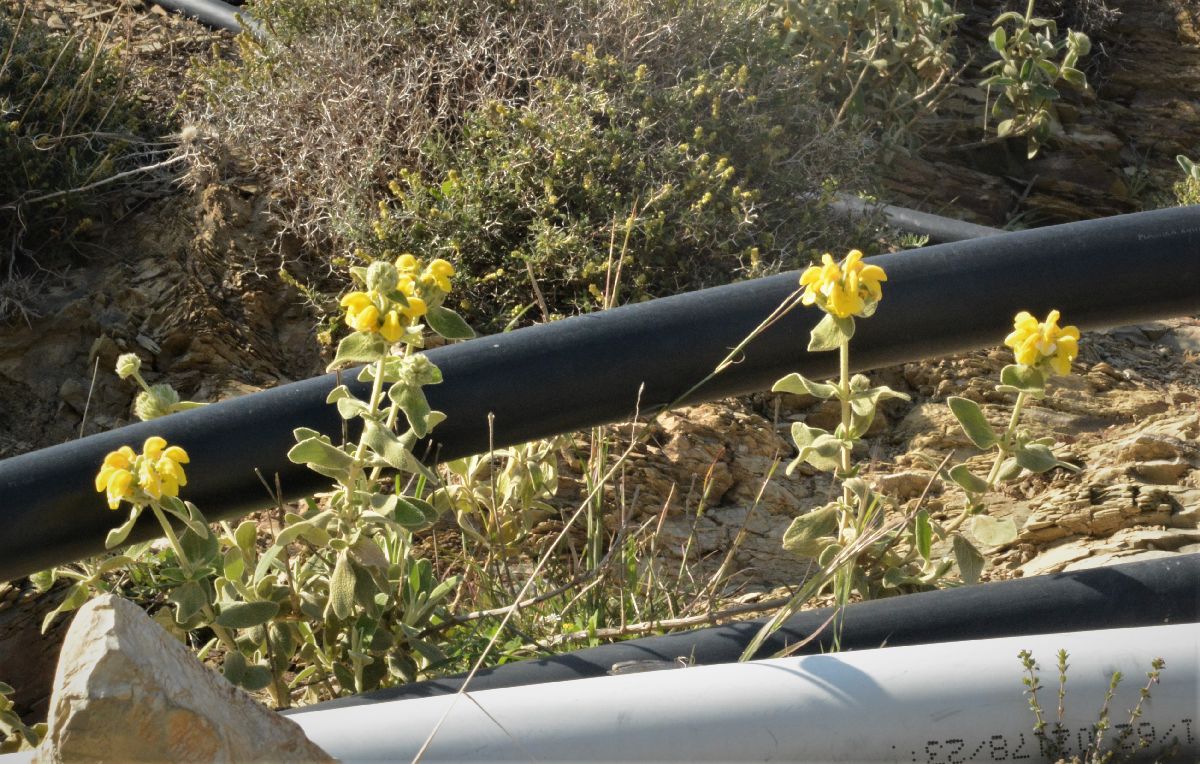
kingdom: Plantae
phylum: Tracheophyta
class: Magnoliopsida
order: Lamiales
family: Lamiaceae
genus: Phlomis
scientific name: Phlomis fruticosa
